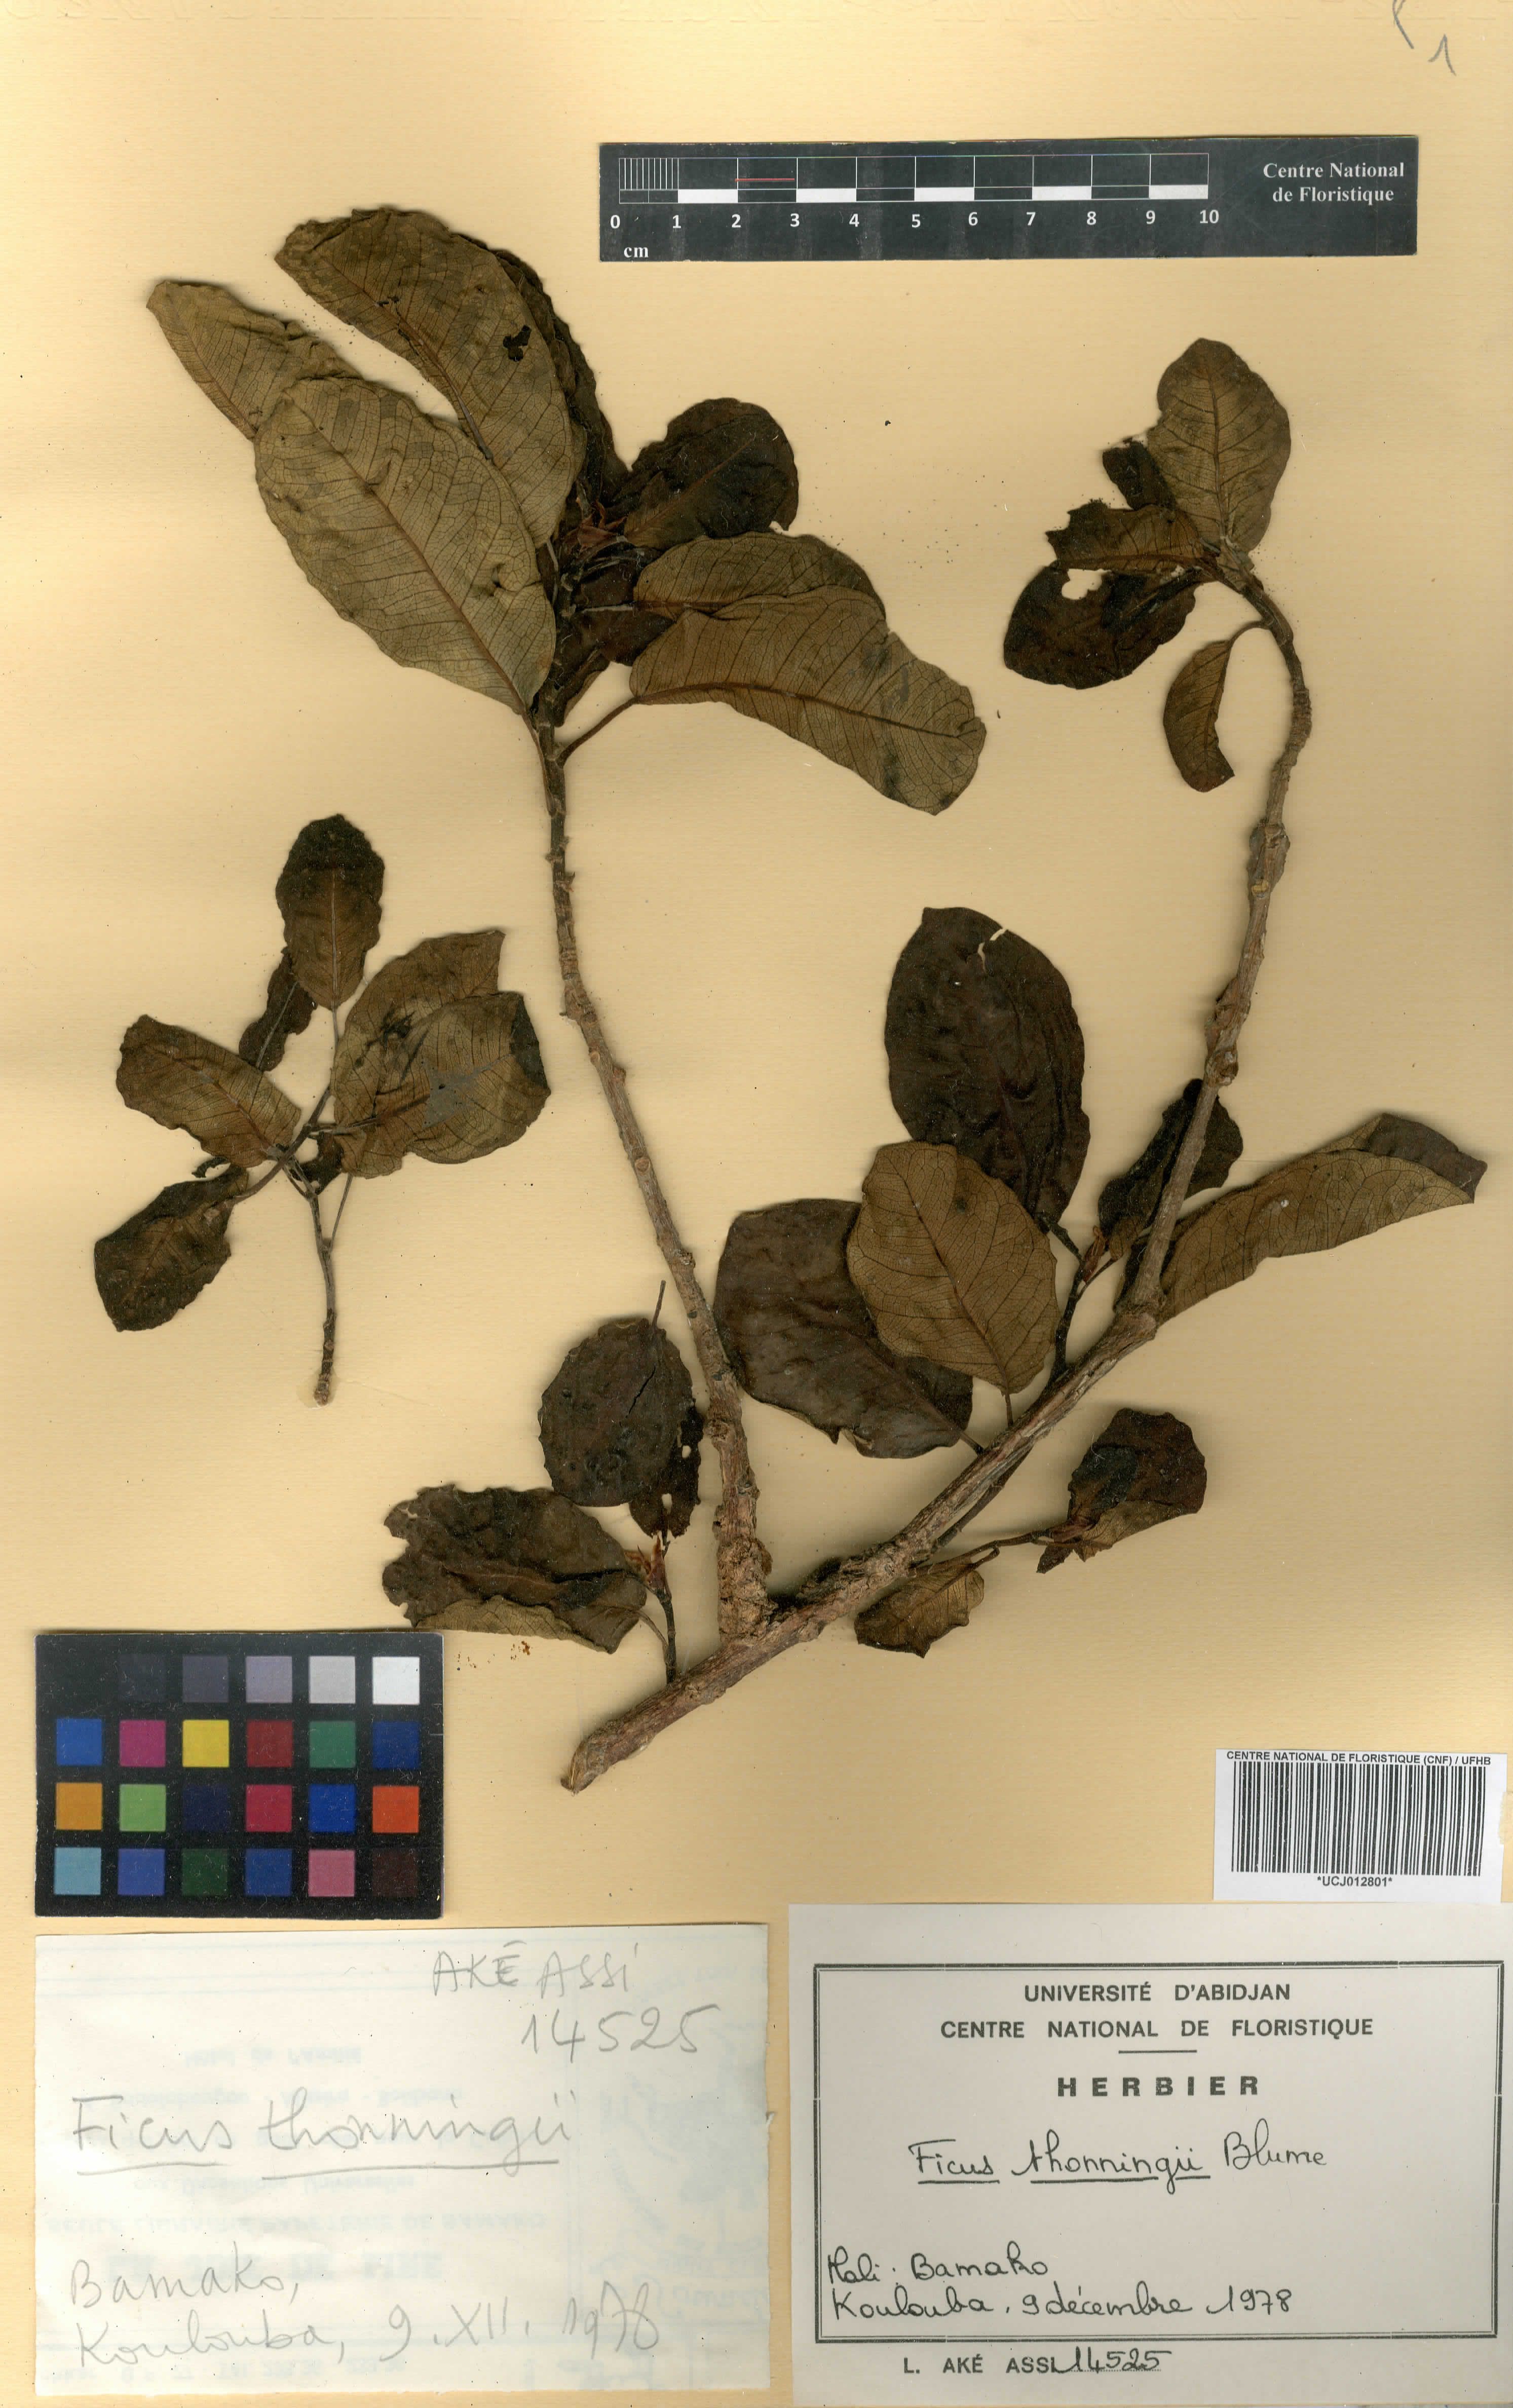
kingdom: Plantae
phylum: Tracheophyta
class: Magnoliopsida
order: Rosales
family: Moraceae
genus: Ficus
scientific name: Ficus thonningii
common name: Fig
